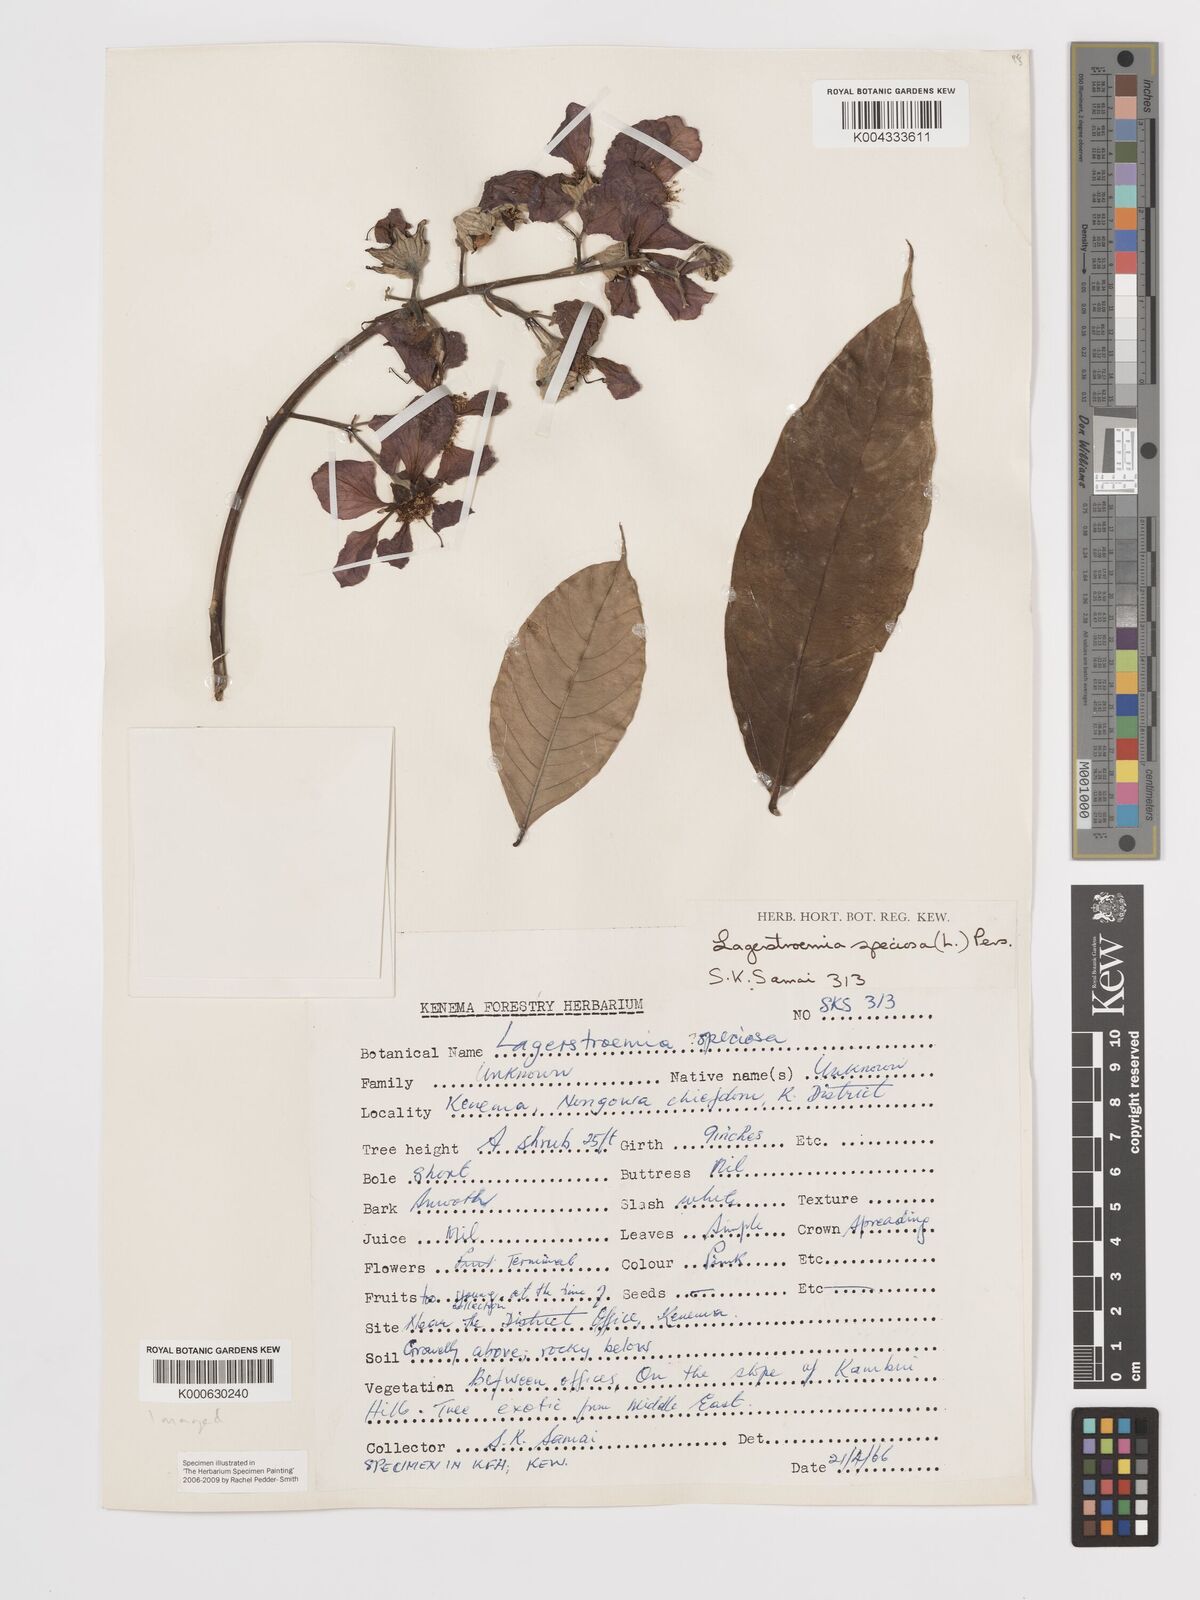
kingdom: Plantae
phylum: Tracheophyta
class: Magnoliopsida
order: Myrtales
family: Lythraceae
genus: Lagerstroemia
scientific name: Lagerstroemia speciosa
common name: Queen's crape-myrtle
